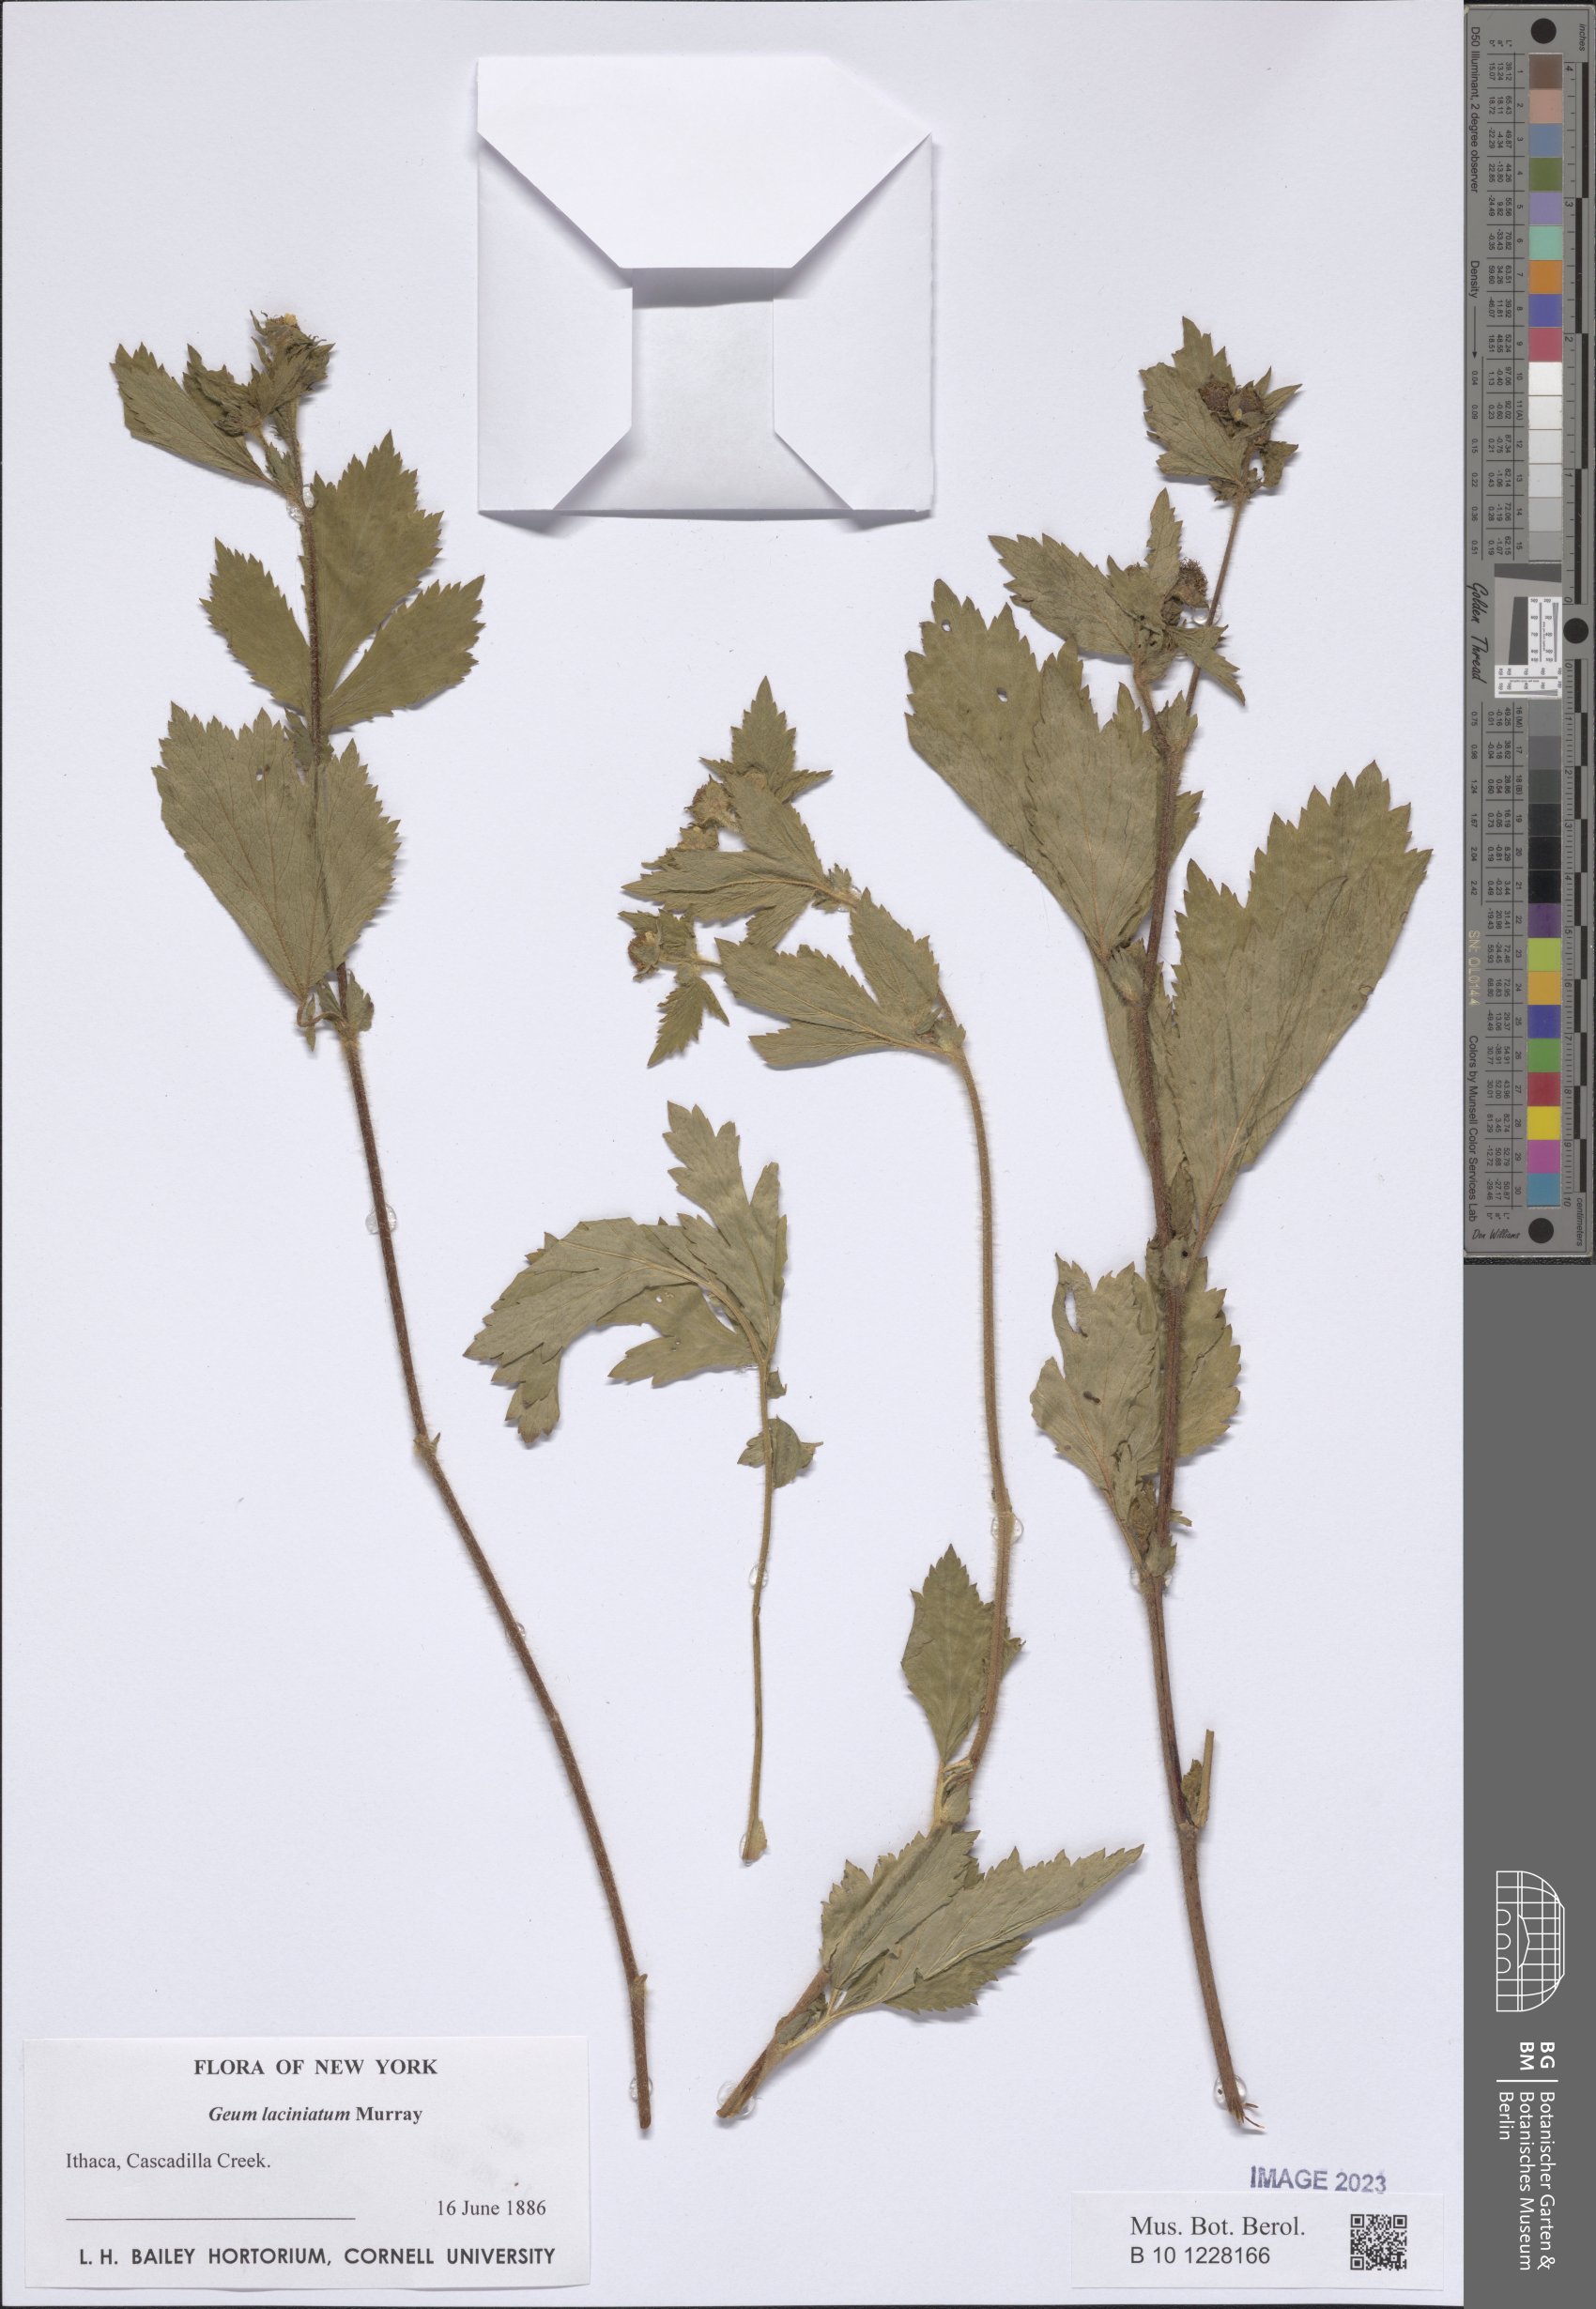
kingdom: Plantae
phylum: Tracheophyta
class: Magnoliopsida
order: Rosales
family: Rosaceae
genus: Geum
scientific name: Geum laciniatum
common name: Rough avens
